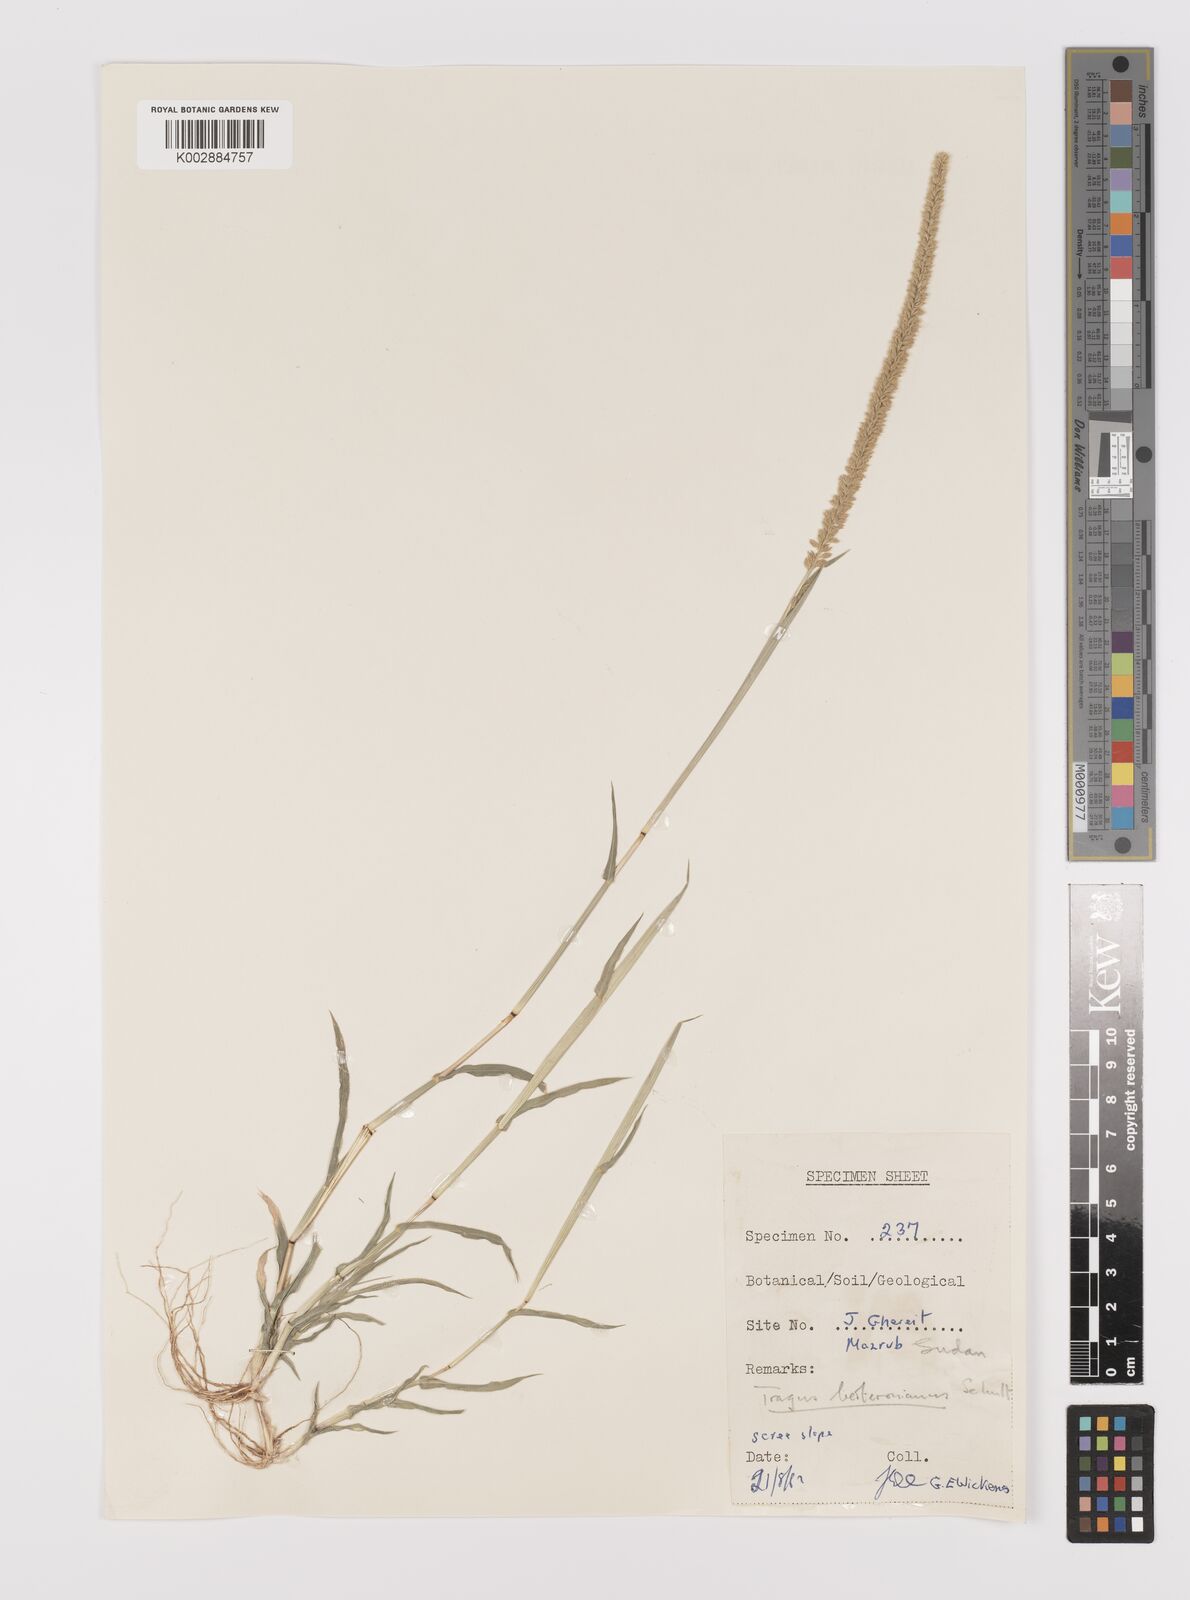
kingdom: Plantae
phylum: Tracheophyta
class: Liliopsida
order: Poales
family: Poaceae
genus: Tragus
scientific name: Tragus berteronianus
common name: African bur-grass
